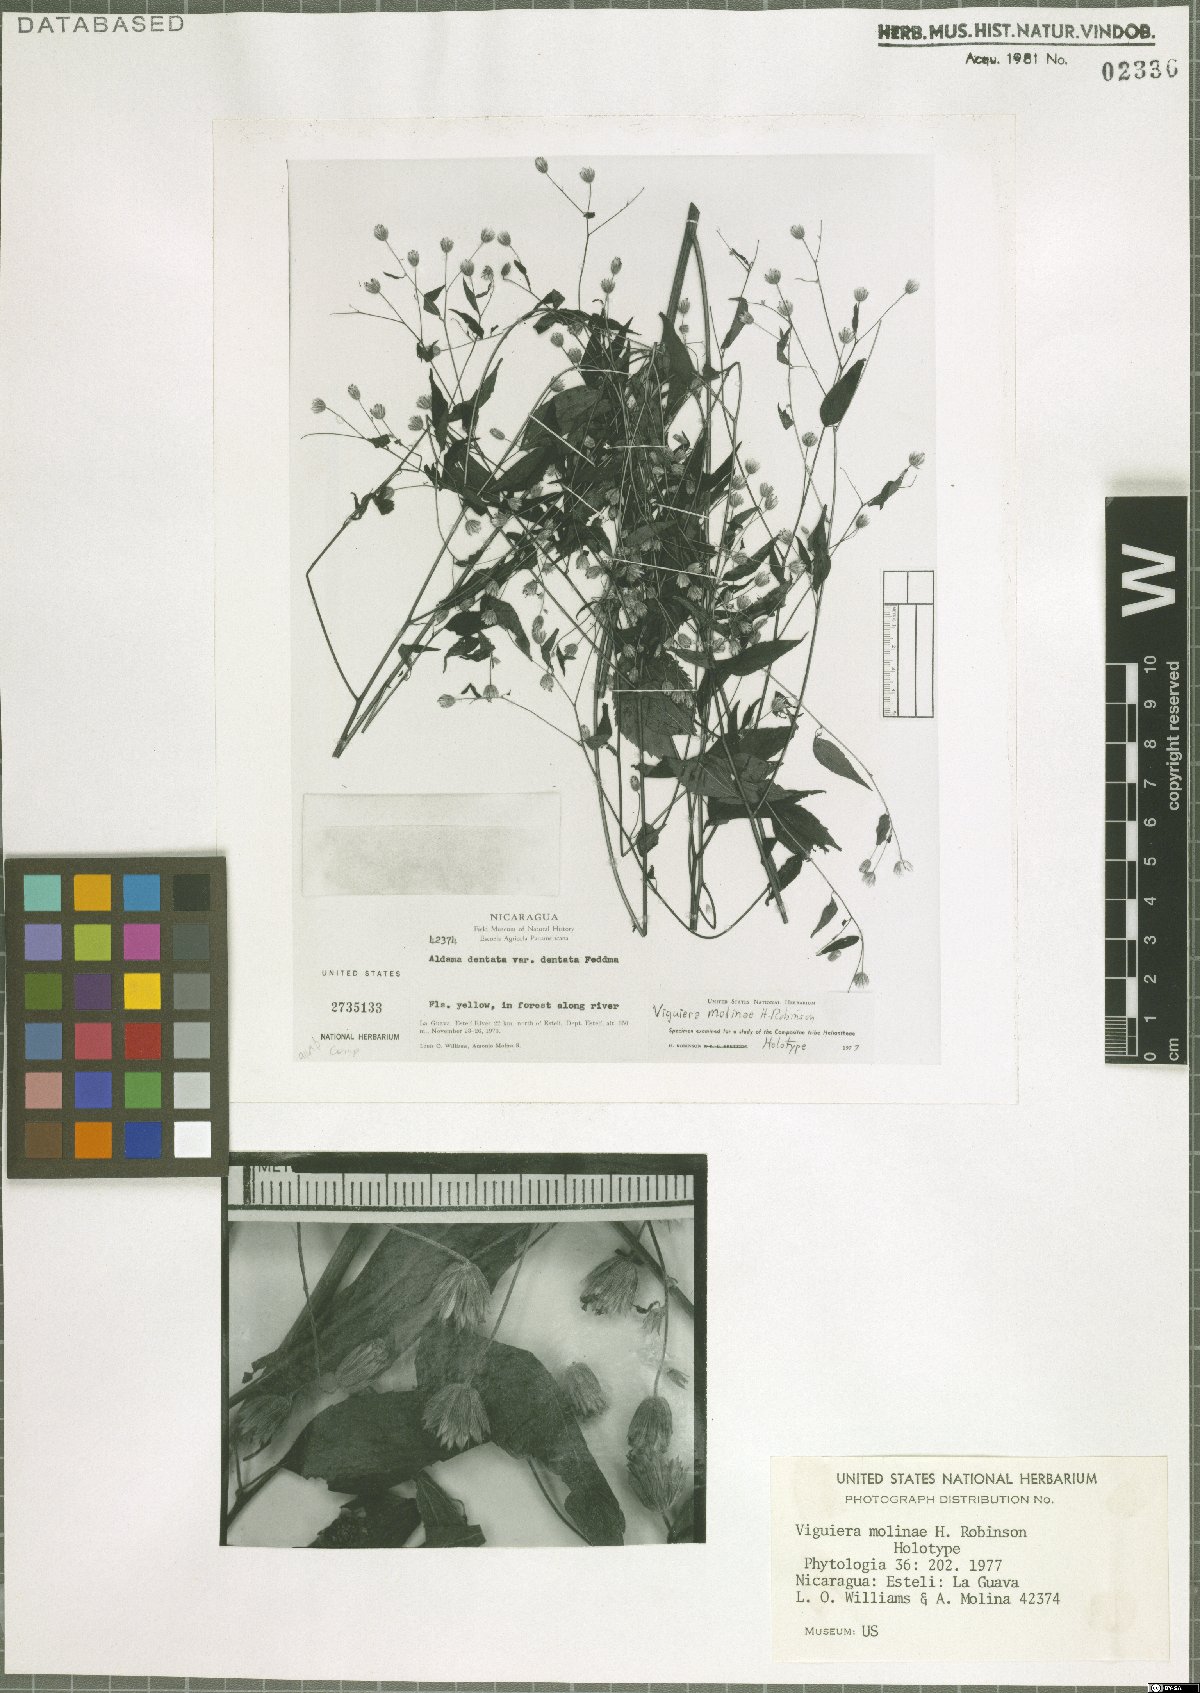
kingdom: Plantae
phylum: Tracheophyta
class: Magnoliopsida
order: Asterales
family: Asteraceae
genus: Hymenostephium
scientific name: Hymenostephium molinae
